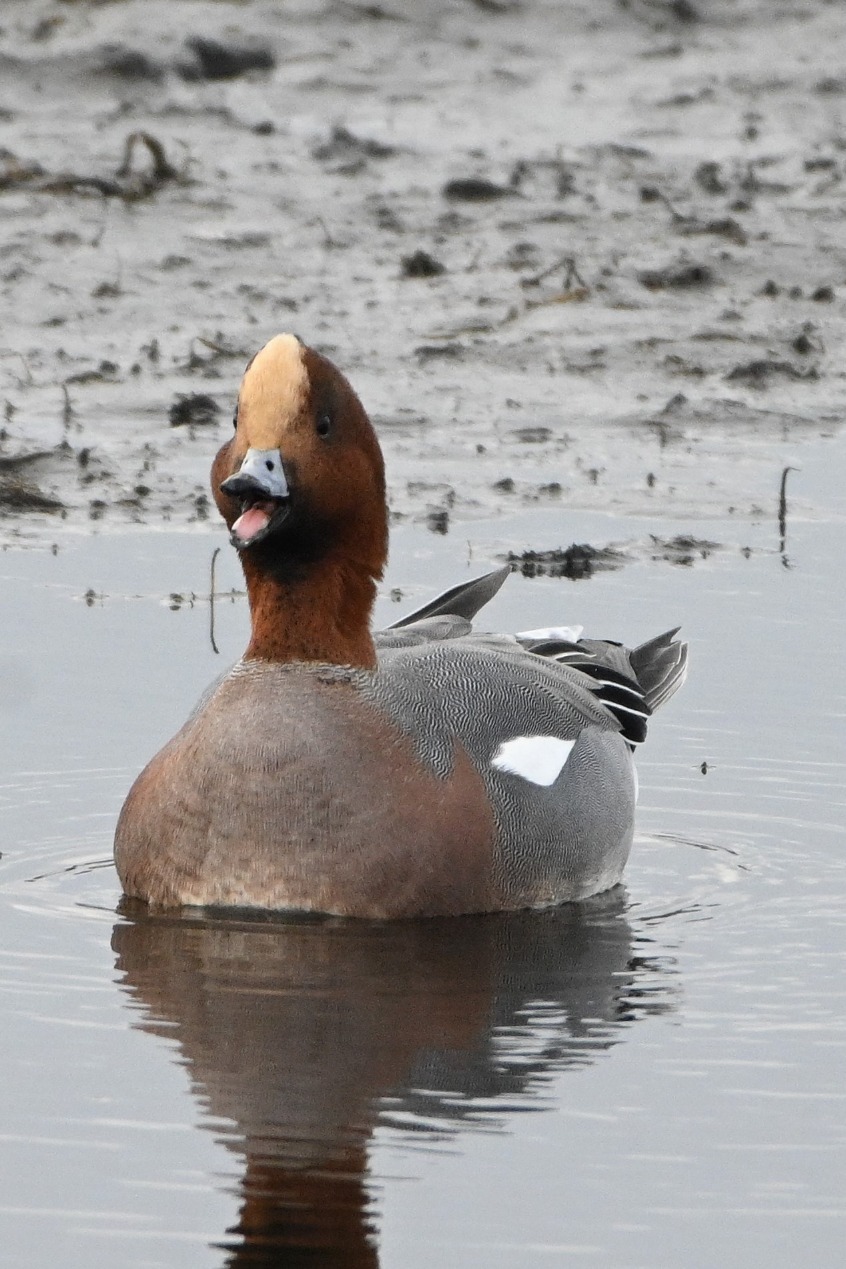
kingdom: Animalia
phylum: Chordata
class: Aves
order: Anseriformes
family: Anatidae
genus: Mareca
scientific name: Mareca penelope
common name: Pibeand
